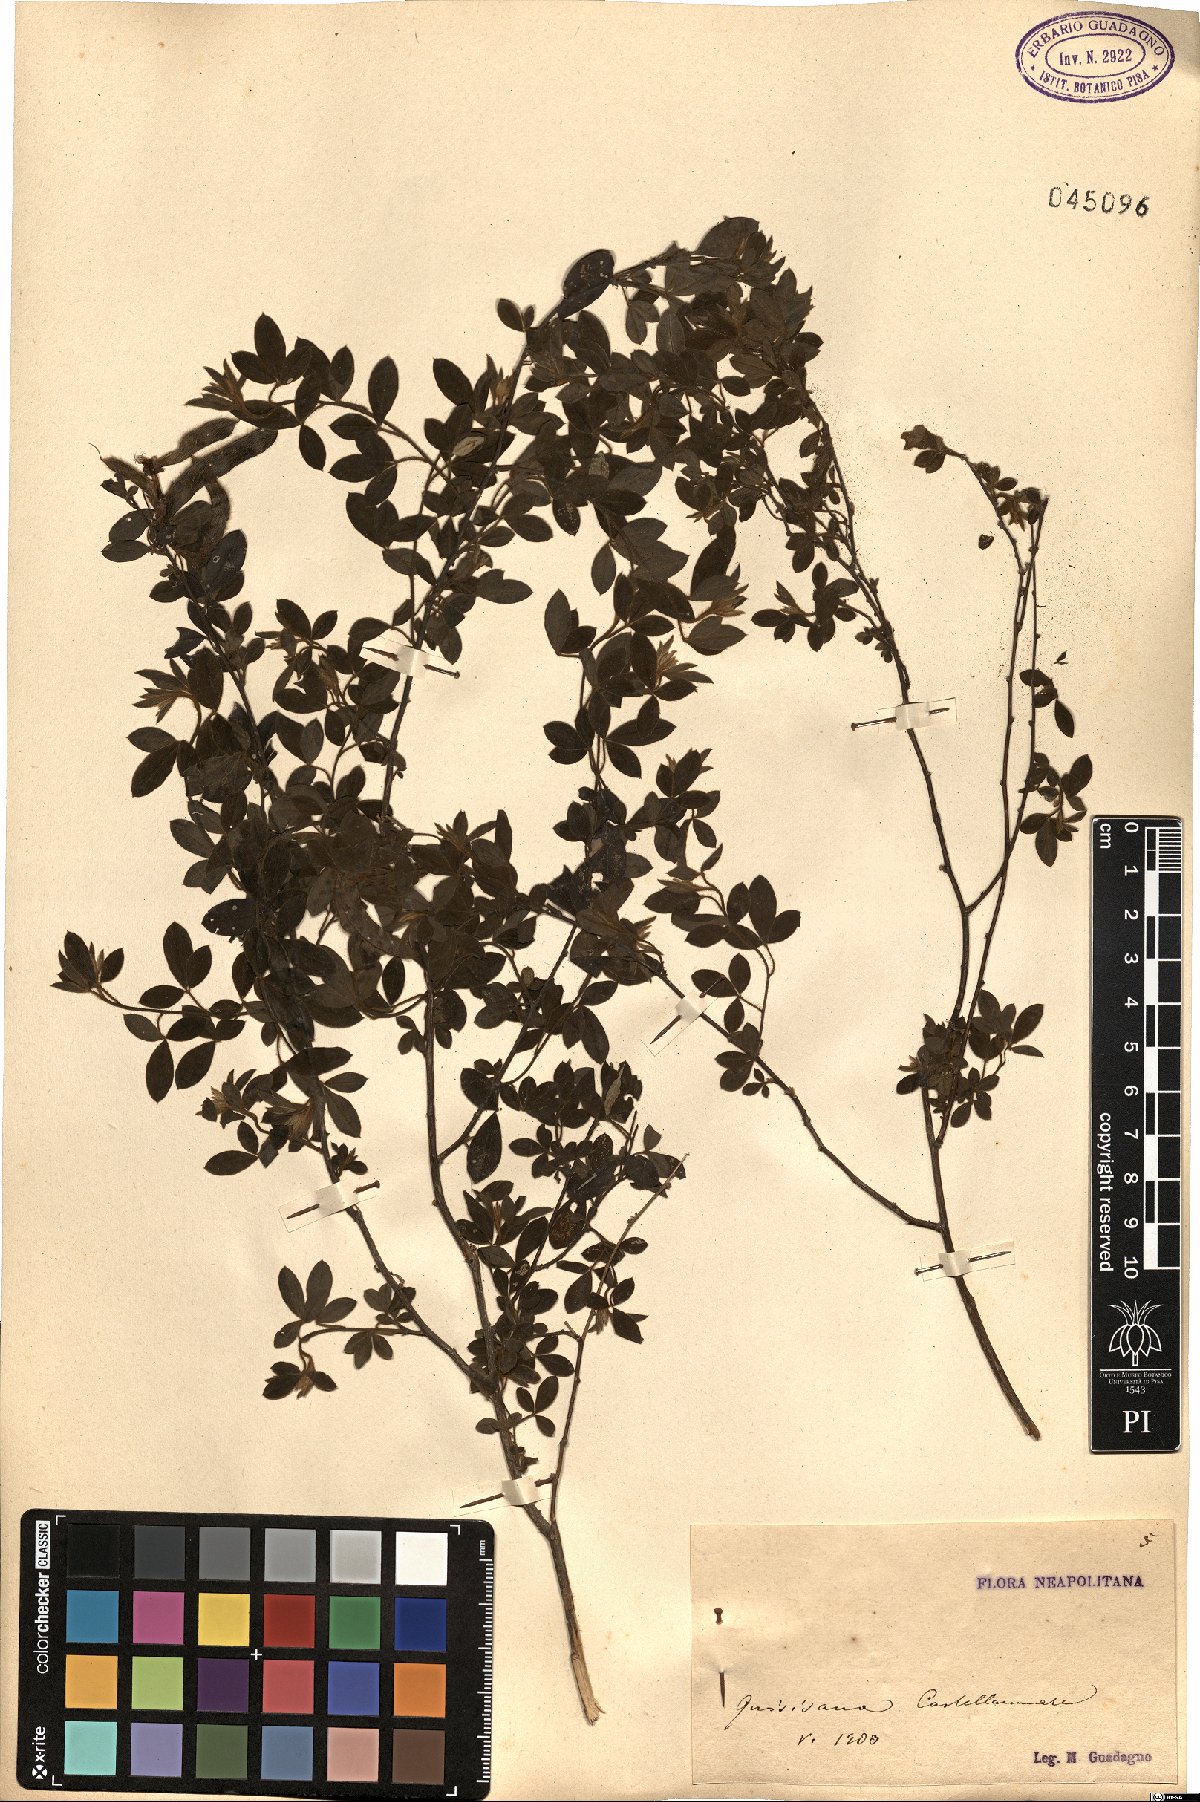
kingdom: Plantae
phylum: Tracheophyta
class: Magnoliopsida
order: Fabales
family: Fabaceae
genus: Cytisus
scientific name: Cytisus
